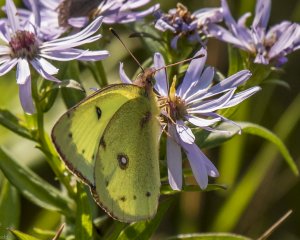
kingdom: Animalia
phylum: Arthropoda
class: Insecta
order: Lepidoptera
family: Pieridae
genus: Colias
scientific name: Colias philodice
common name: Clouded Sulphur
